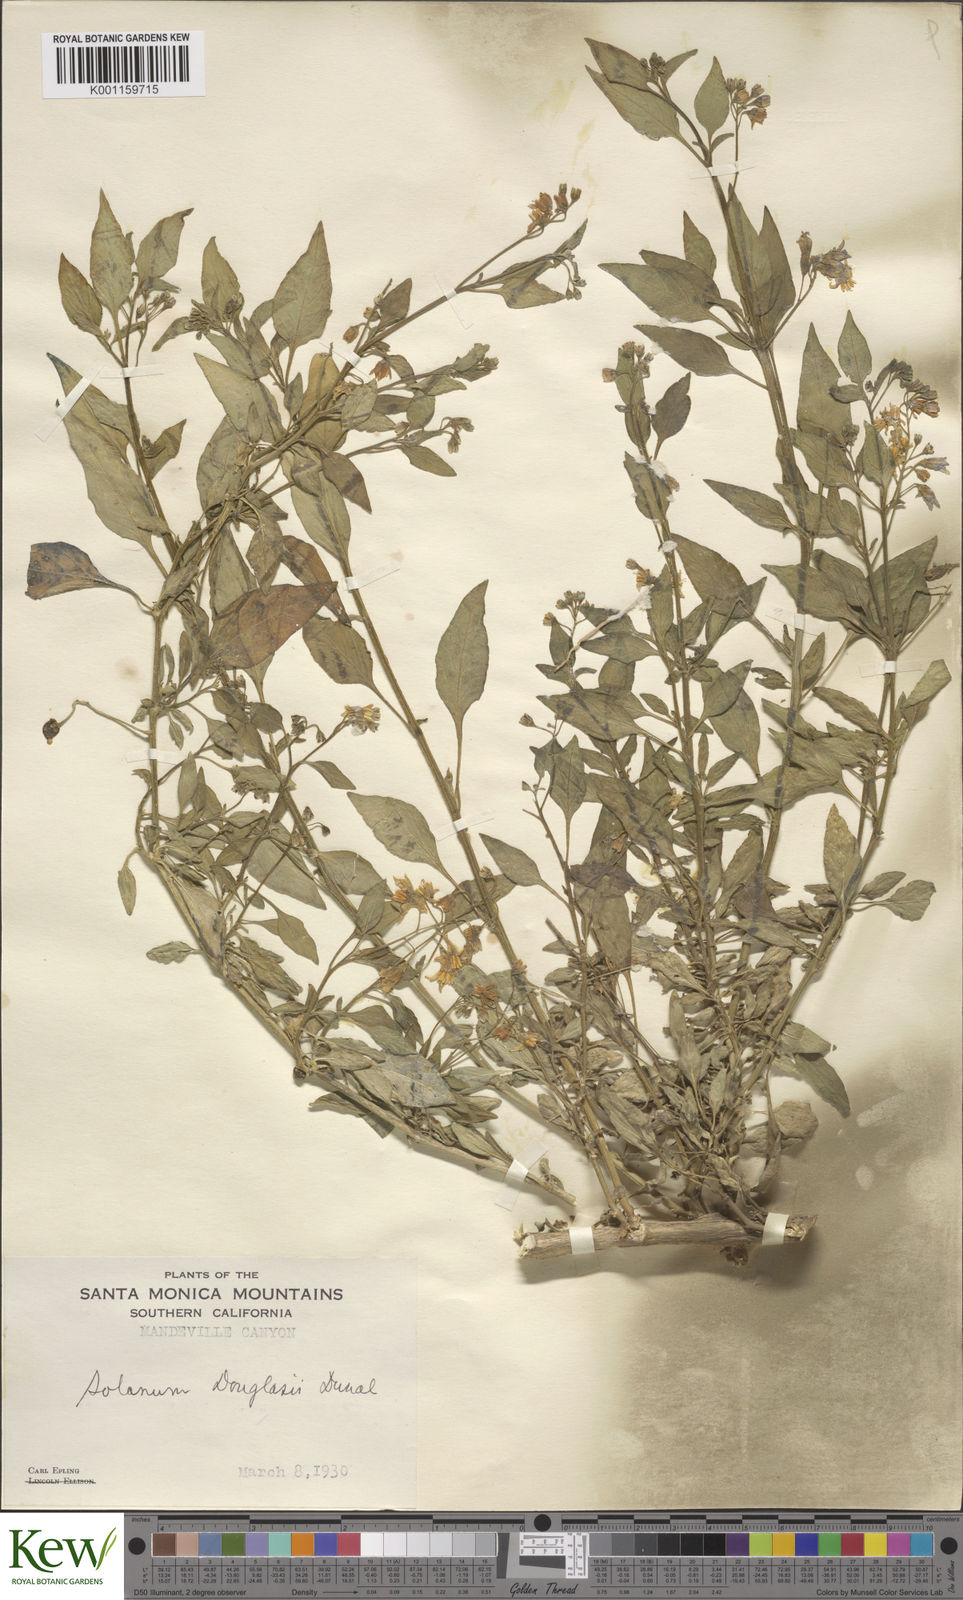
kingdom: Plantae
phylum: Tracheophyta
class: Magnoliopsida
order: Solanales
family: Solanaceae
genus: Solanum
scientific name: Solanum douglasii
